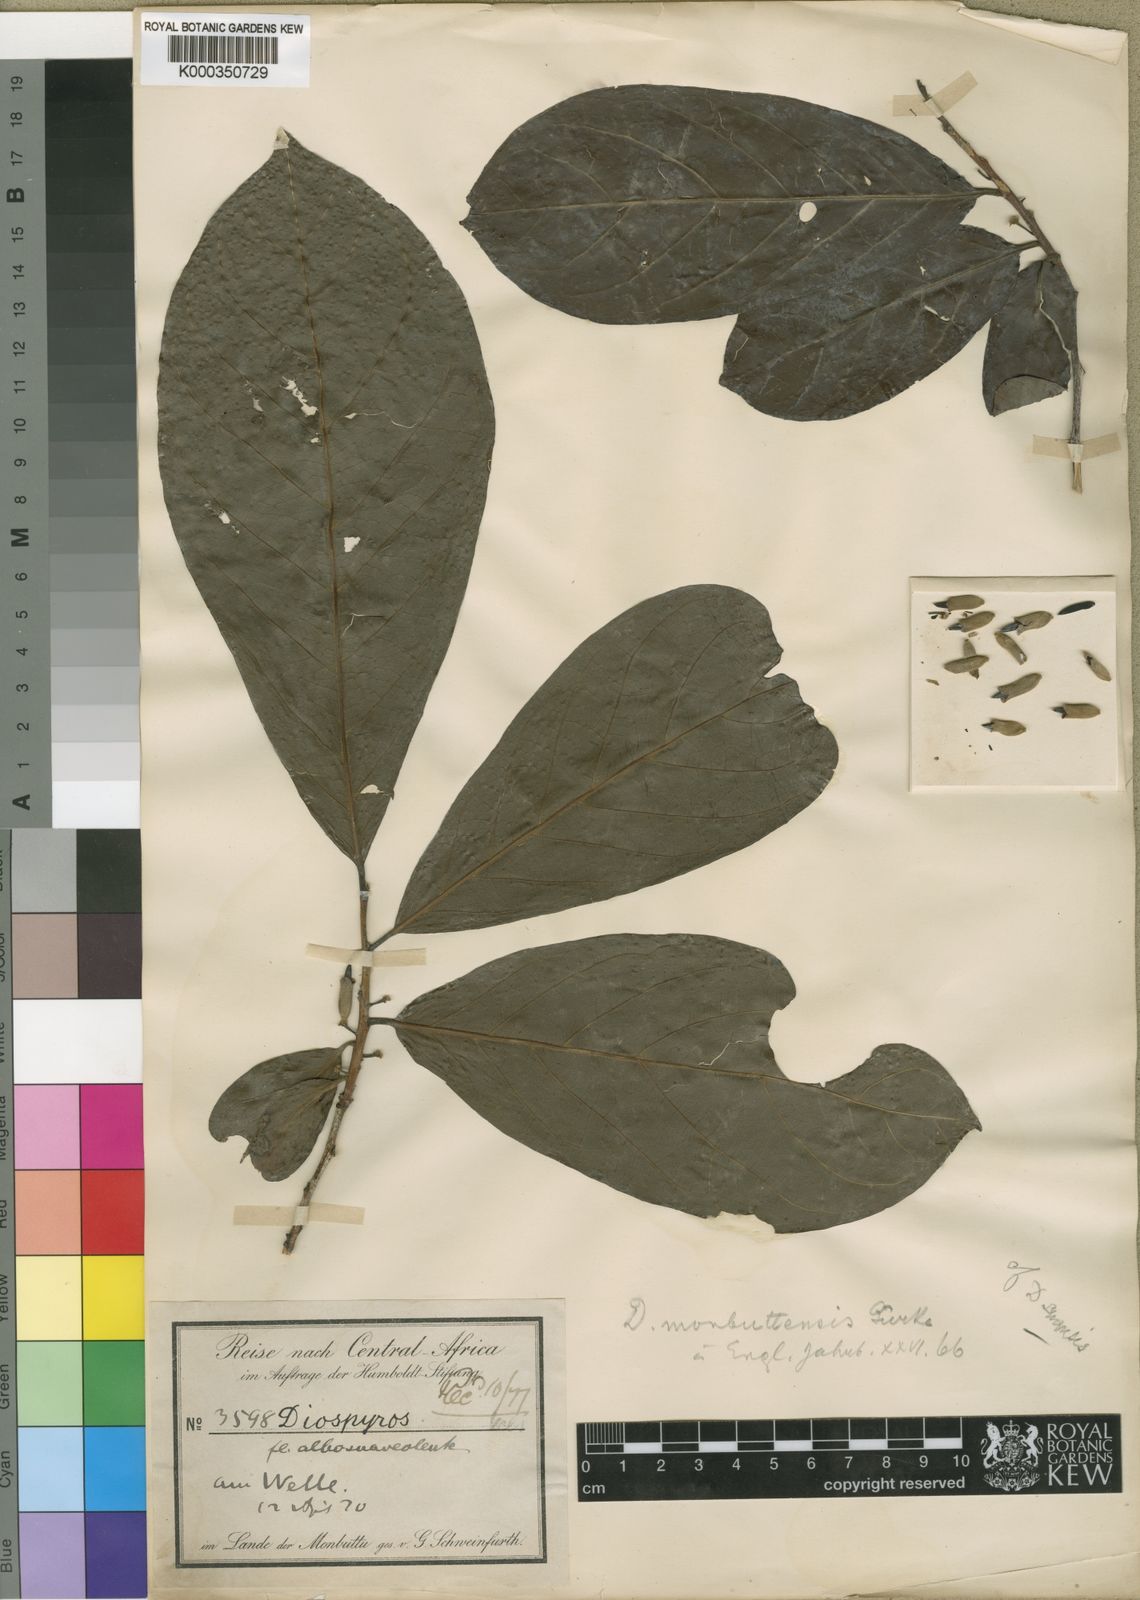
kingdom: Plantae
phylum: Tracheophyta
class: Magnoliopsida
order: Ericales
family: Ebenaceae
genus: Diospyros
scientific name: Diospyros
